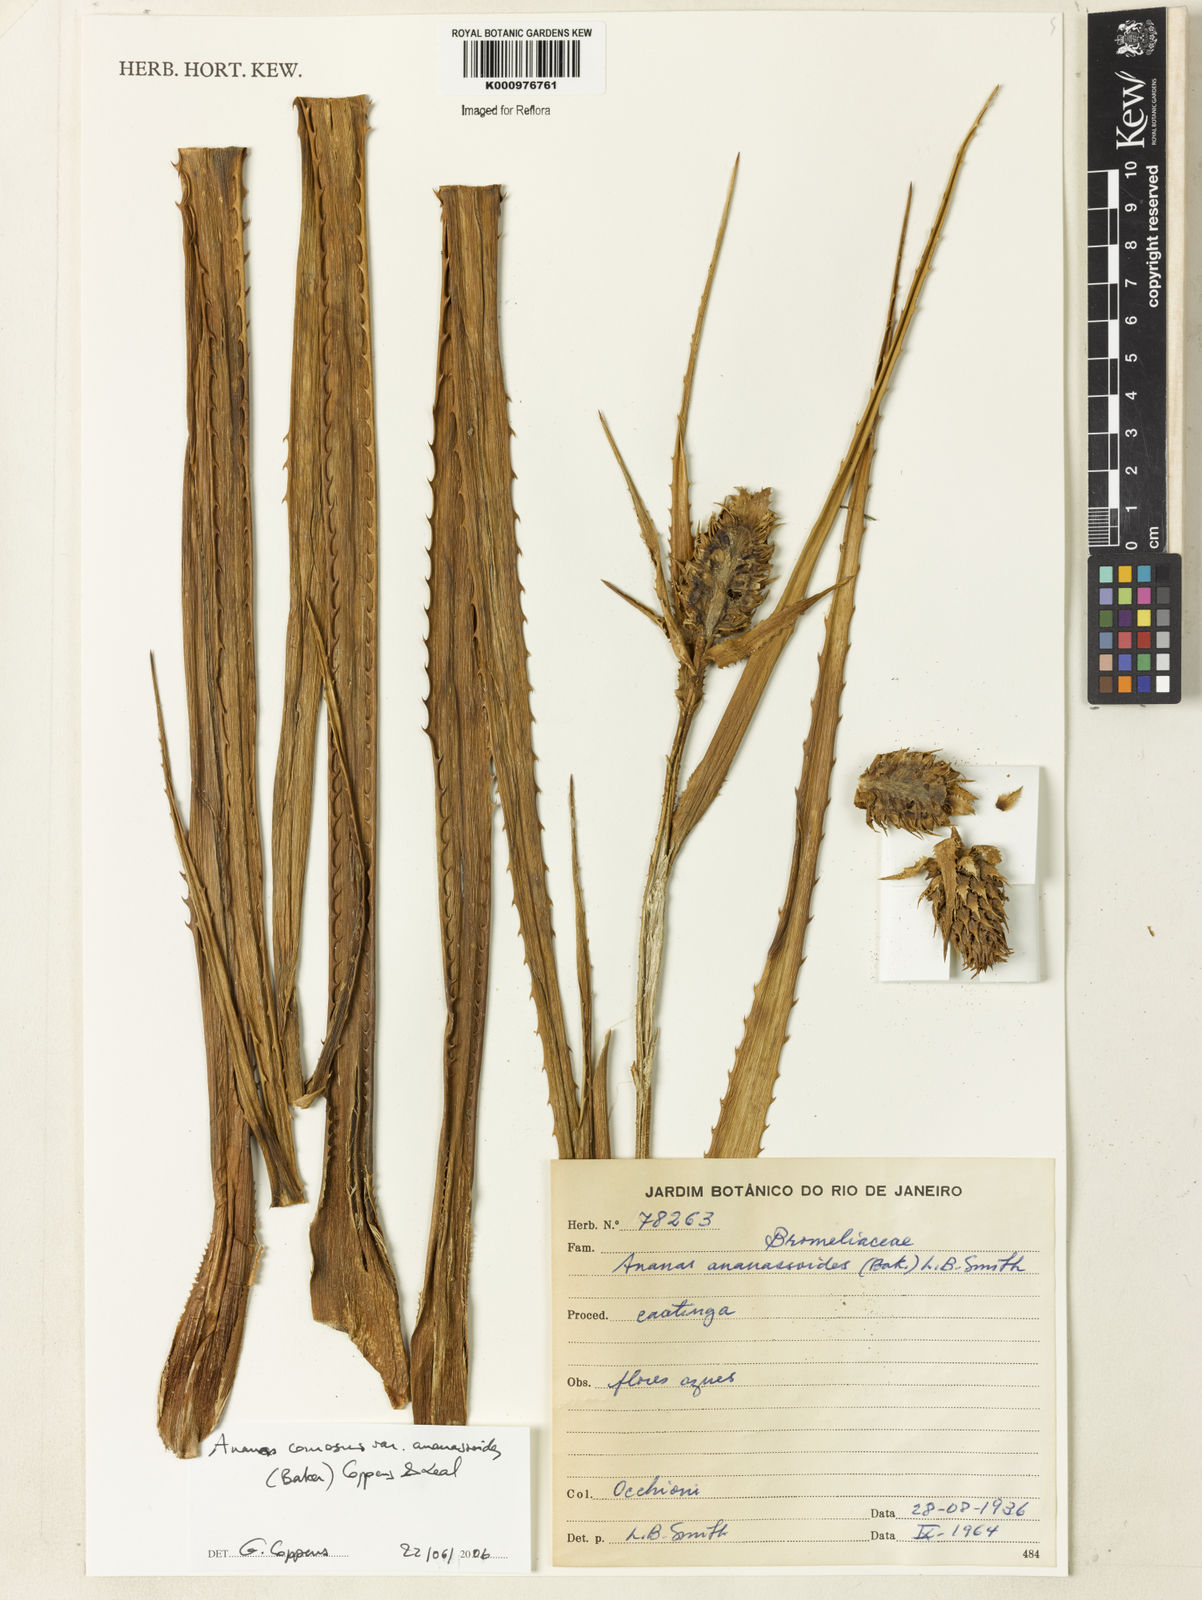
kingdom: Plantae
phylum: Tracheophyta
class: Liliopsida
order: Poales
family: Bromeliaceae
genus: Ananas
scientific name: Ananas comosus
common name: Pineapple
